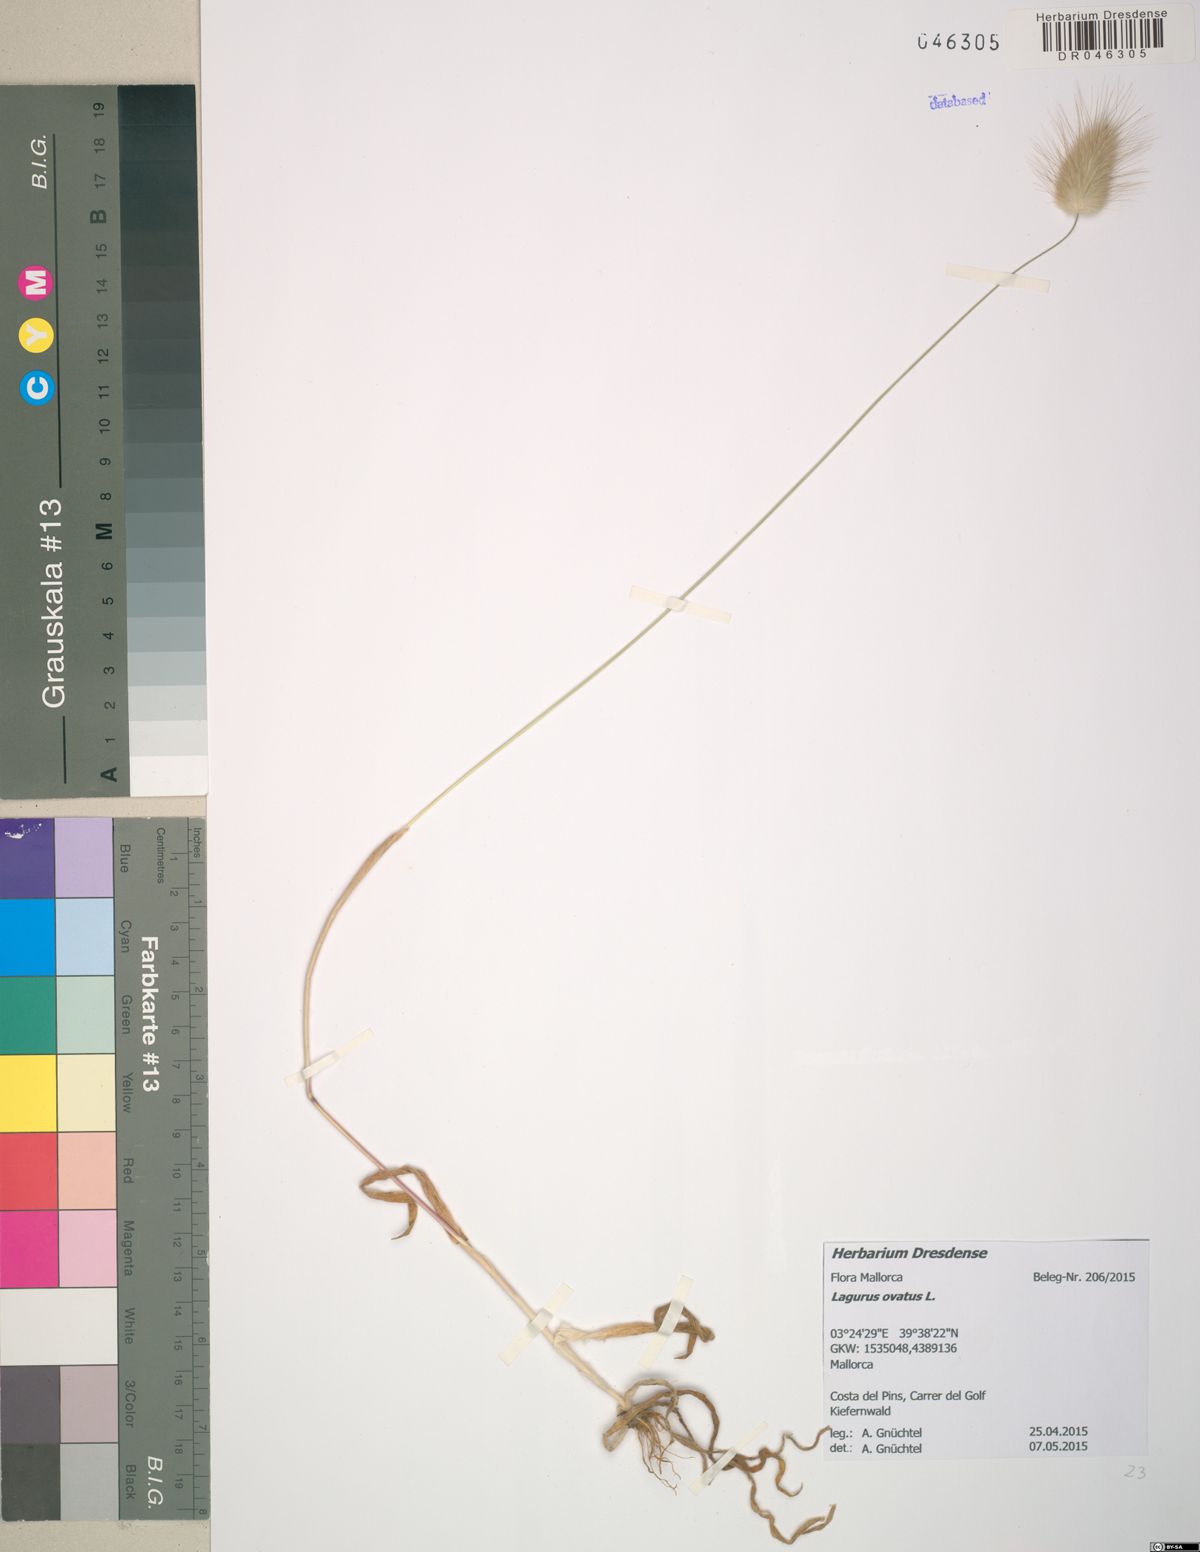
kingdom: Plantae
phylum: Tracheophyta
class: Liliopsida
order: Poales
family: Poaceae
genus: Lagurus
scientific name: Lagurus ovatus
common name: Hare's-tail
